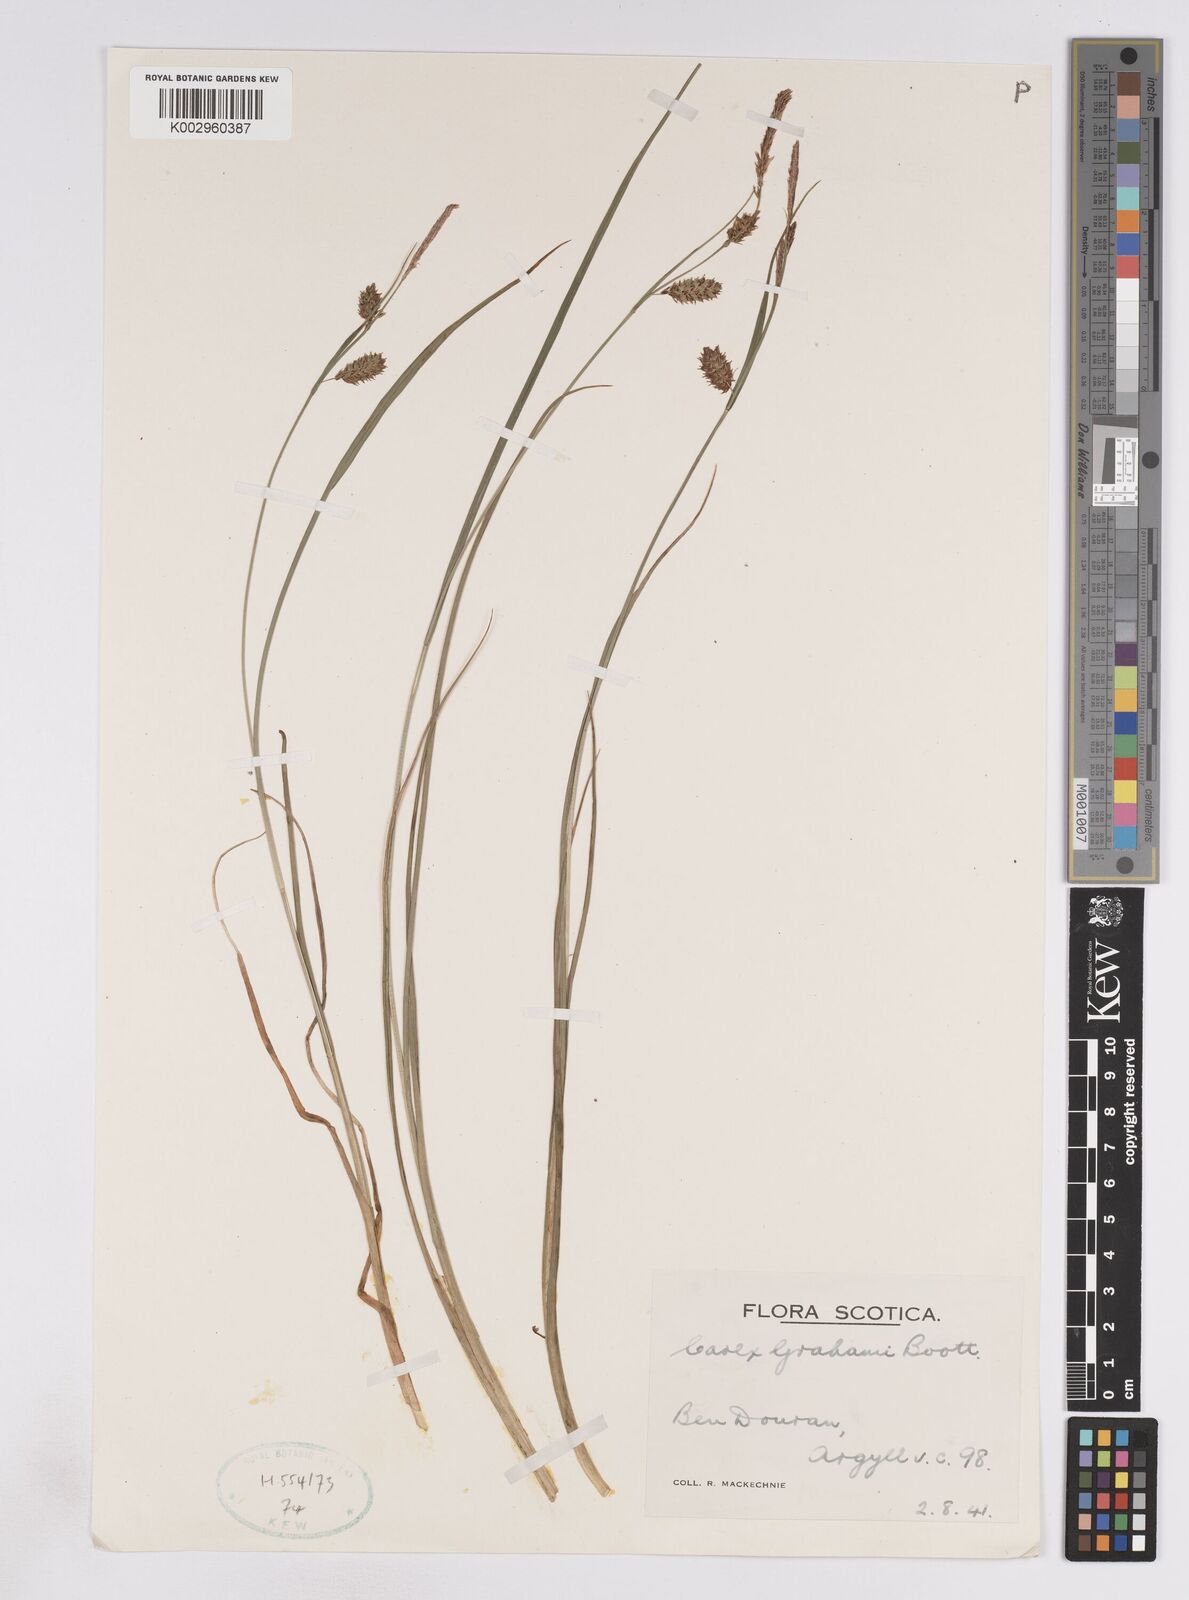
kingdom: Plantae
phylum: Tracheophyta
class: Liliopsida
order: Poales
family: Cyperaceae
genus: Carex
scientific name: Carex rostrata
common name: Bottle sedge
